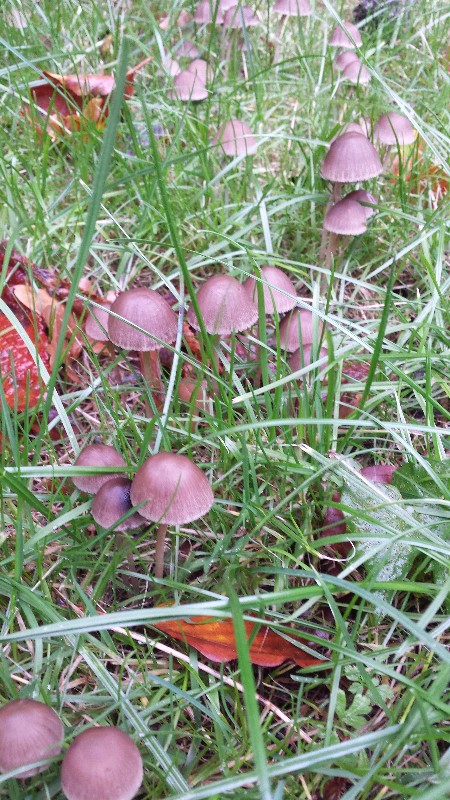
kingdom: Fungi
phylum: Basidiomycota
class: Agaricomycetes
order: Agaricales
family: Psathyrellaceae
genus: Parasola
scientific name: Parasola conopilea
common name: kegle-hjulhat
